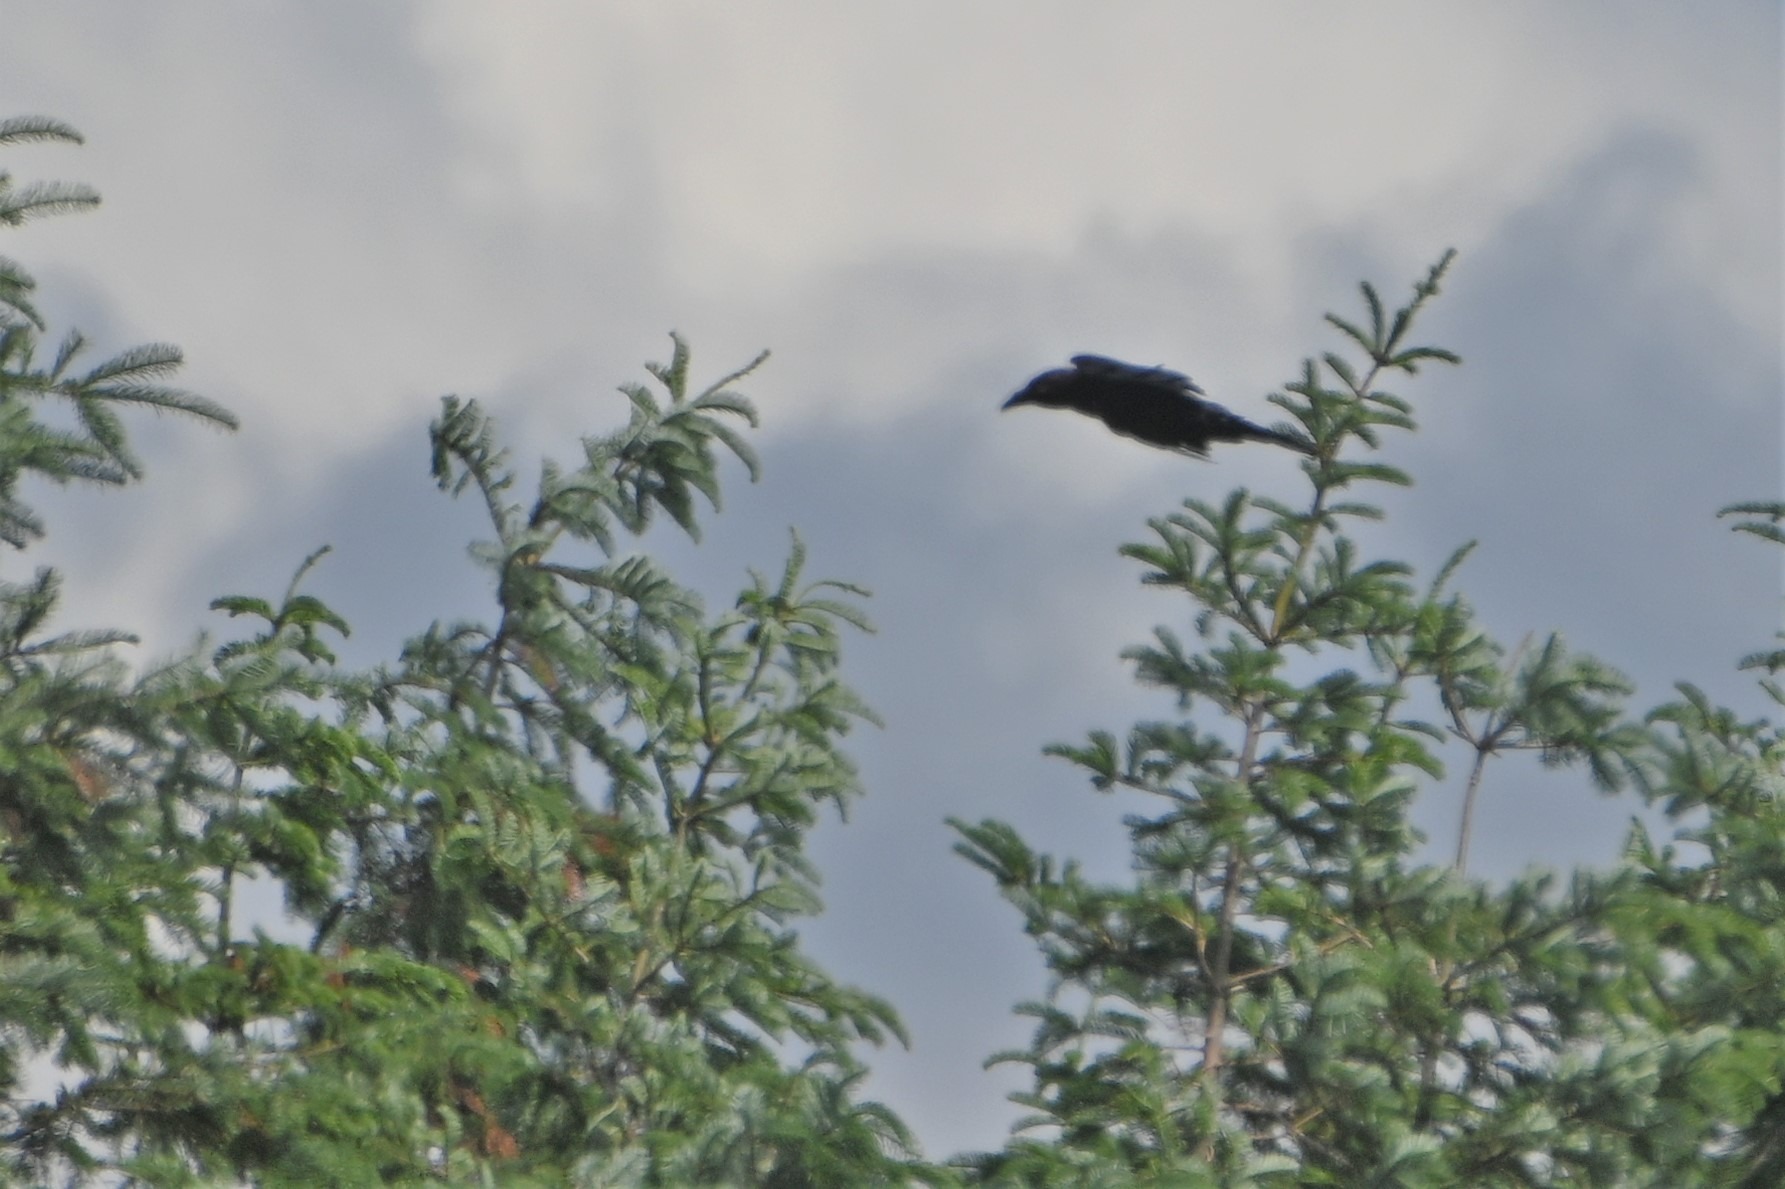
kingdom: Animalia
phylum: Chordata
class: Aves
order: Passeriformes
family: Corvidae
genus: Corvus
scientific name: Corvus corax
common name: Ravn
